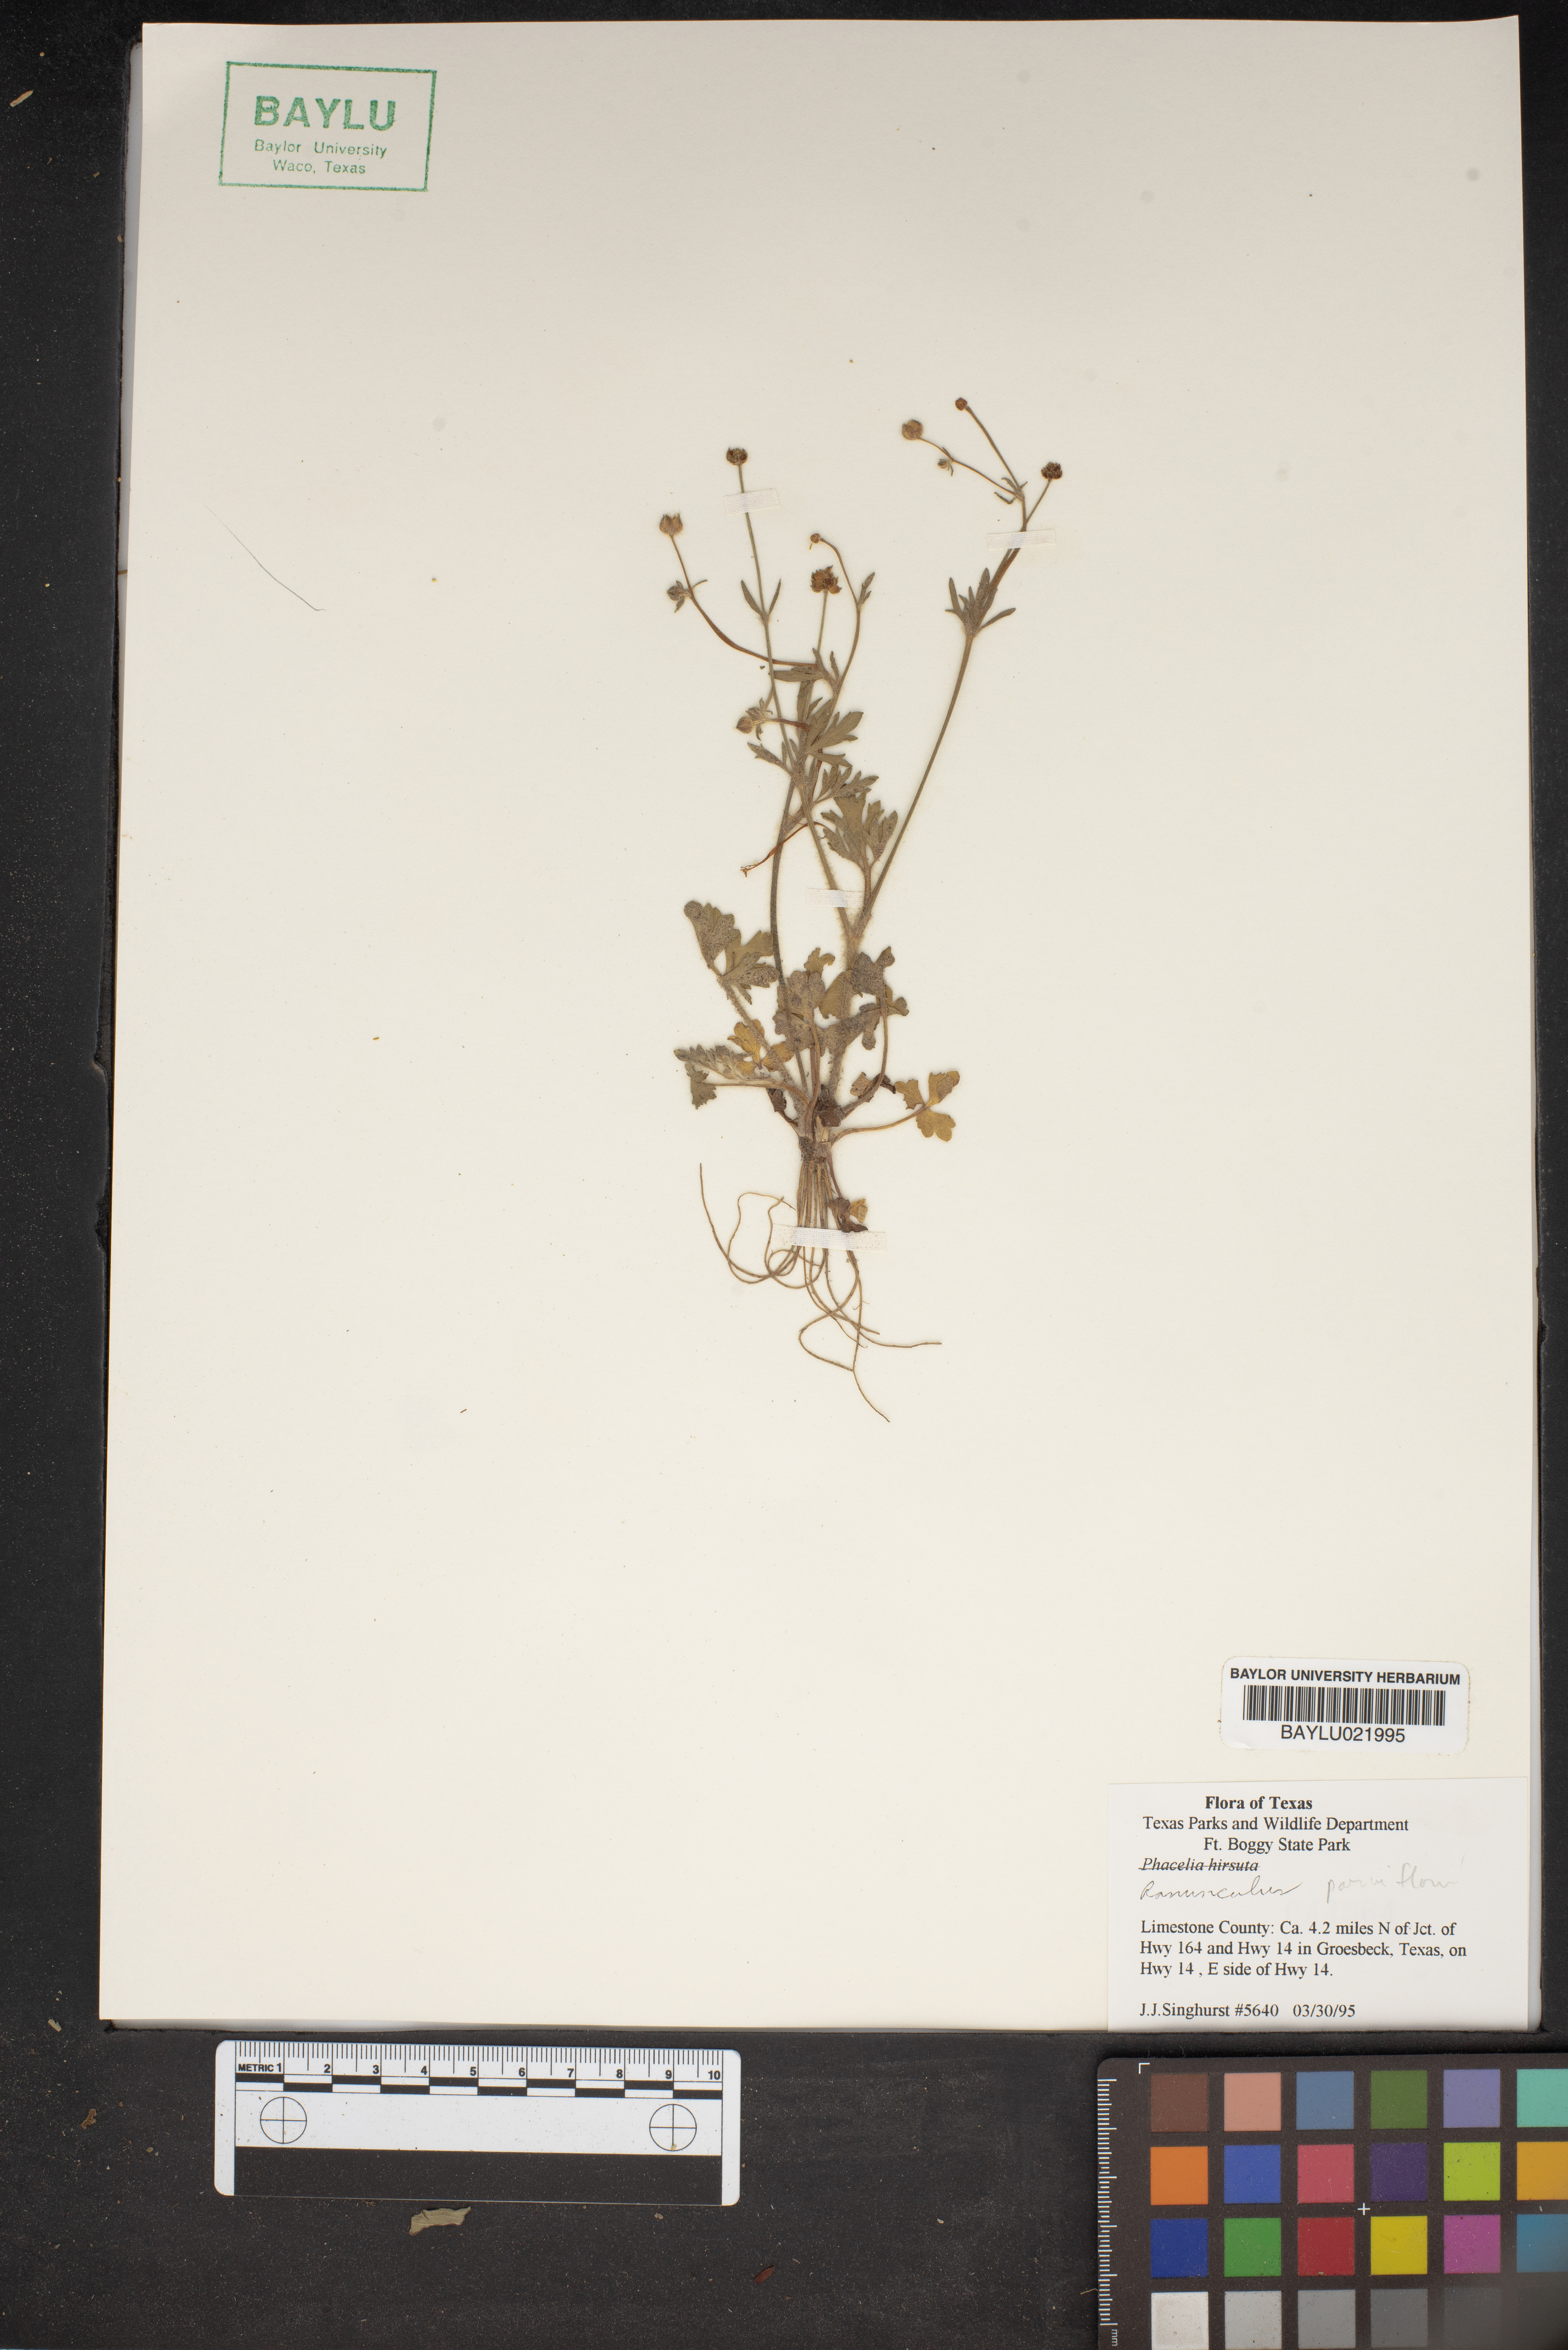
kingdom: Plantae
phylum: Tracheophyta
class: Magnoliopsida
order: Ranunculales
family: Ranunculaceae
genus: Ranunculus
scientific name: Ranunculus parviflorus
